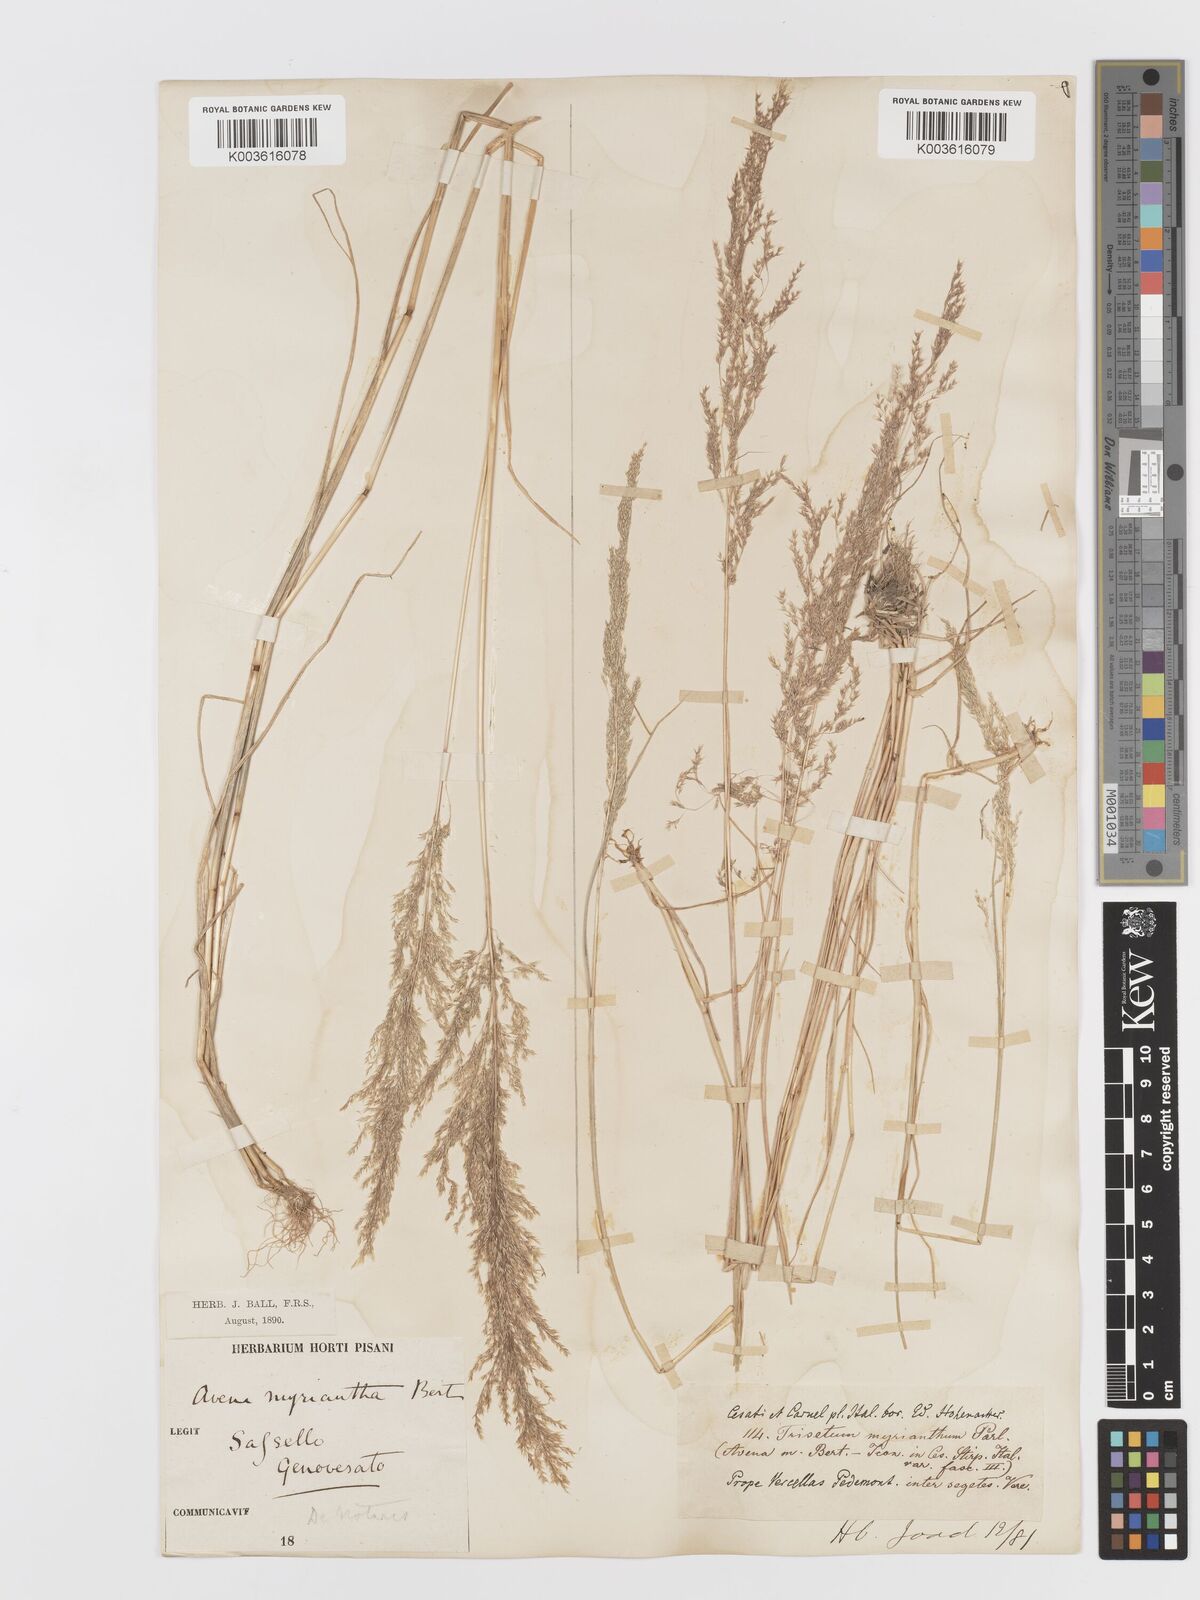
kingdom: Plantae
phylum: Tracheophyta
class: Liliopsida
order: Poales
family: Poaceae
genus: Parvotrisetum
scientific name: Parvotrisetum myrianthum
